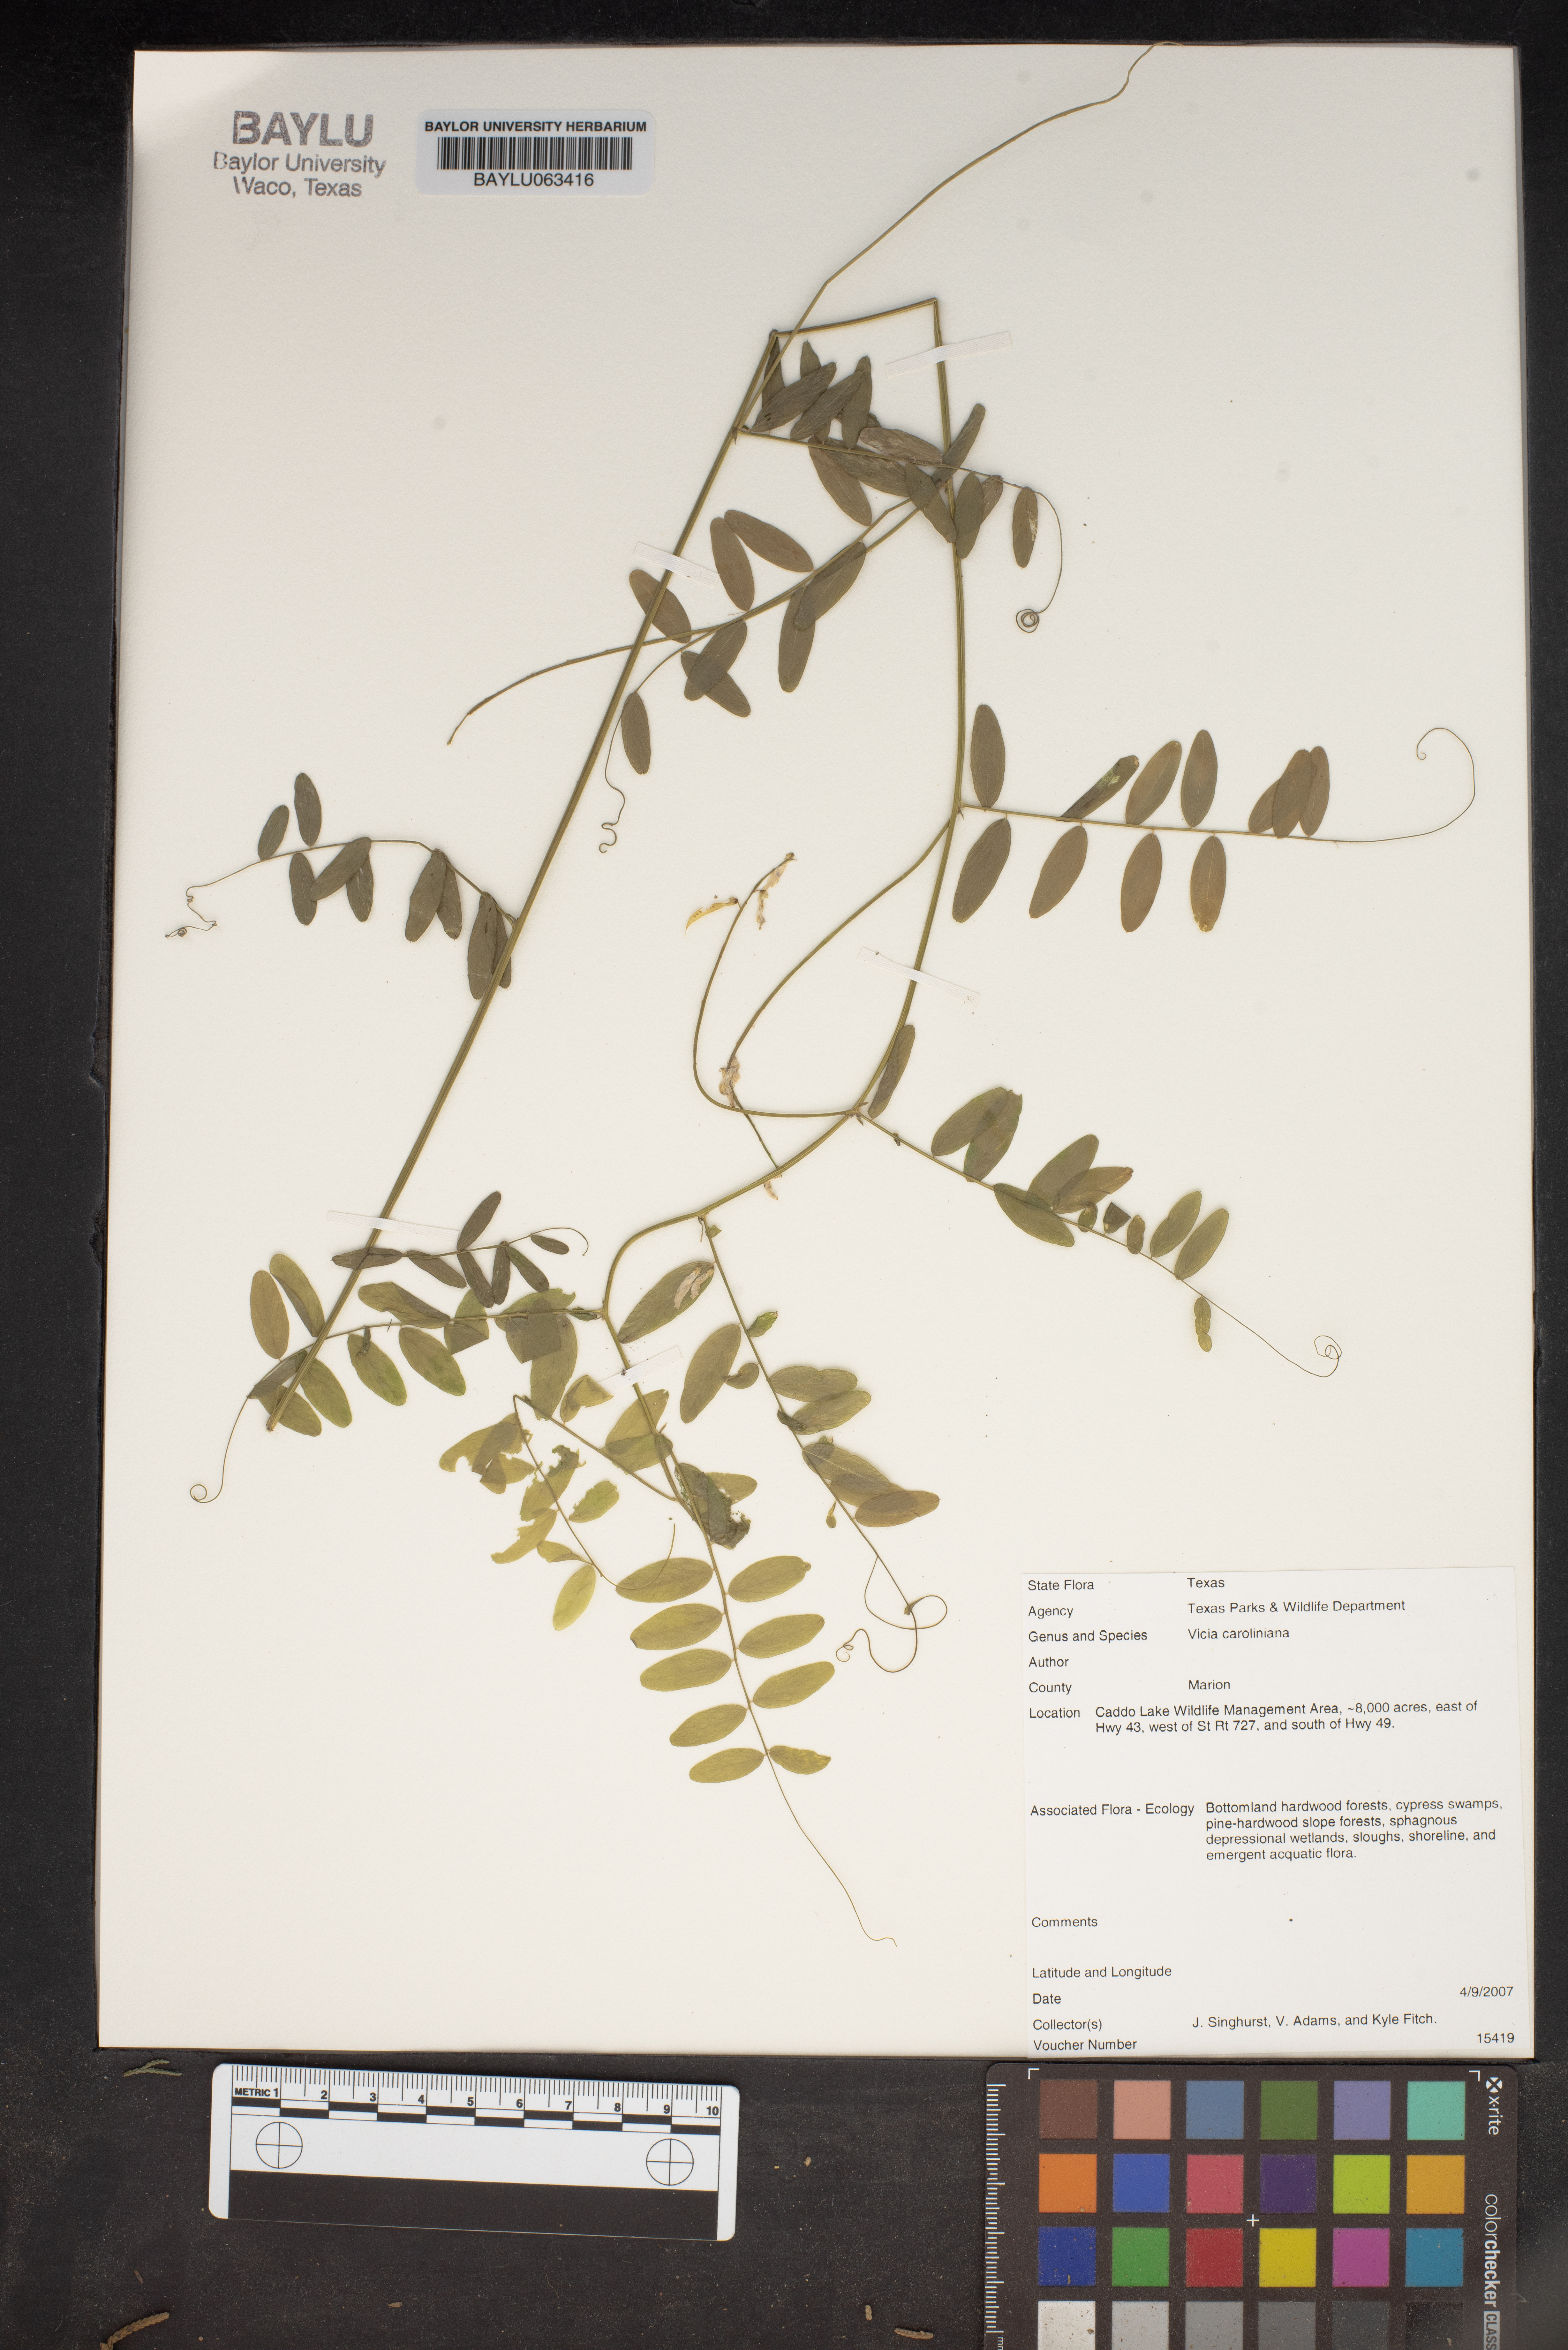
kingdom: Plantae
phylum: Tracheophyta
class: Magnoliopsida
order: Fabales
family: Fabaceae
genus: Vicia
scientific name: Vicia caroliniana
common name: Carolina vetch
